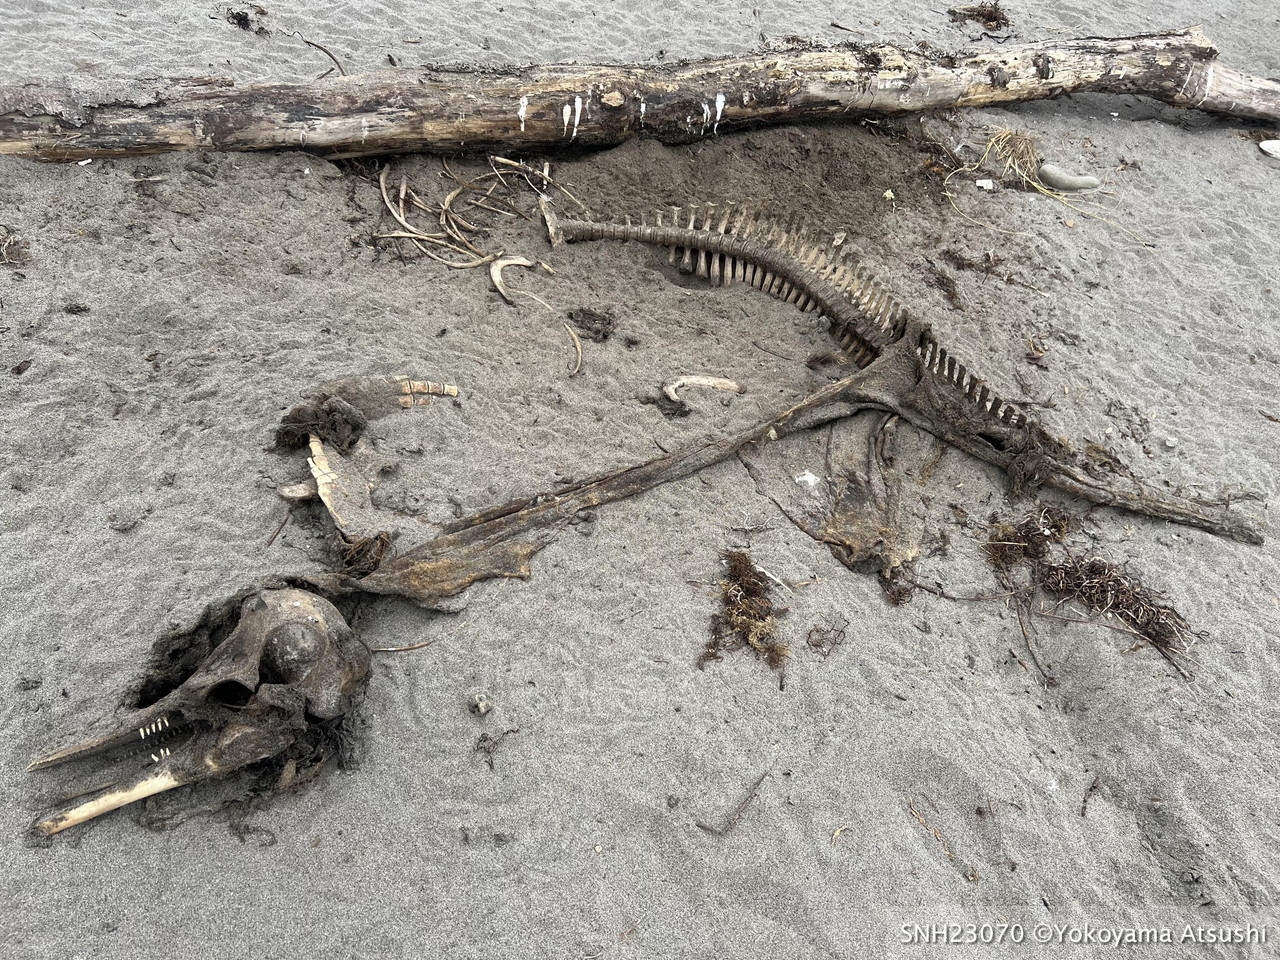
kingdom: Animalia
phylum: Chordata
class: Mammalia
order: Cetacea
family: Delphinidae
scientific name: Delphinidae
